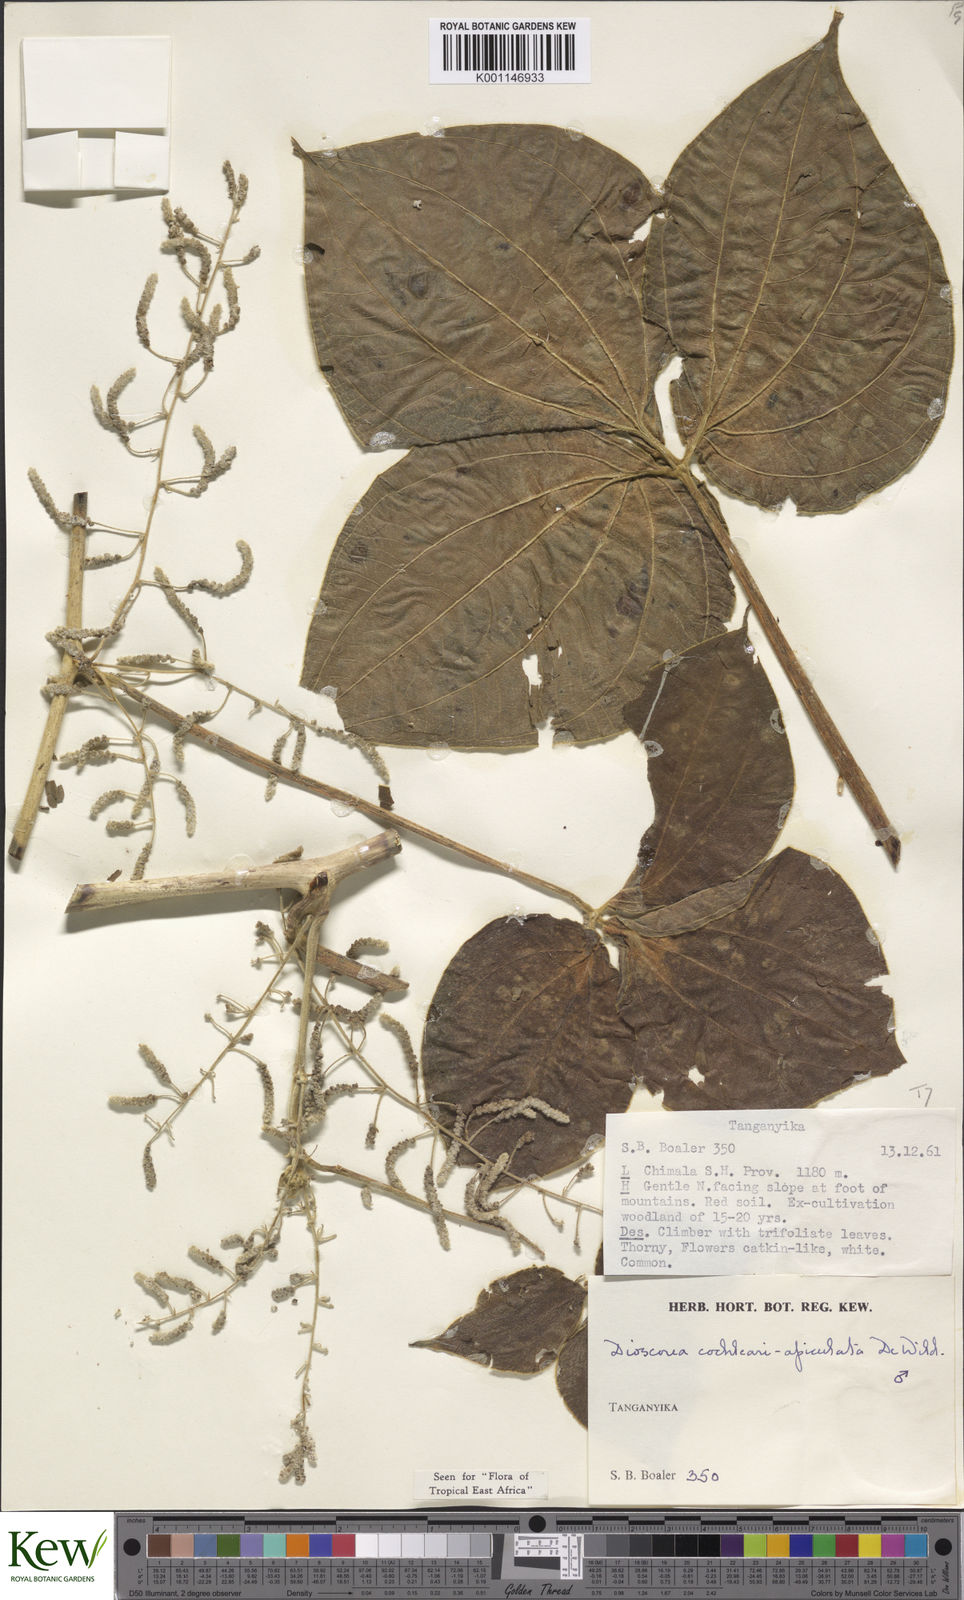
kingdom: Plantae
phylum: Tracheophyta
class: Liliopsida
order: Dioscoreales
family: Dioscoreaceae
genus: Dioscorea
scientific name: Dioscorea cochleariapiculata
